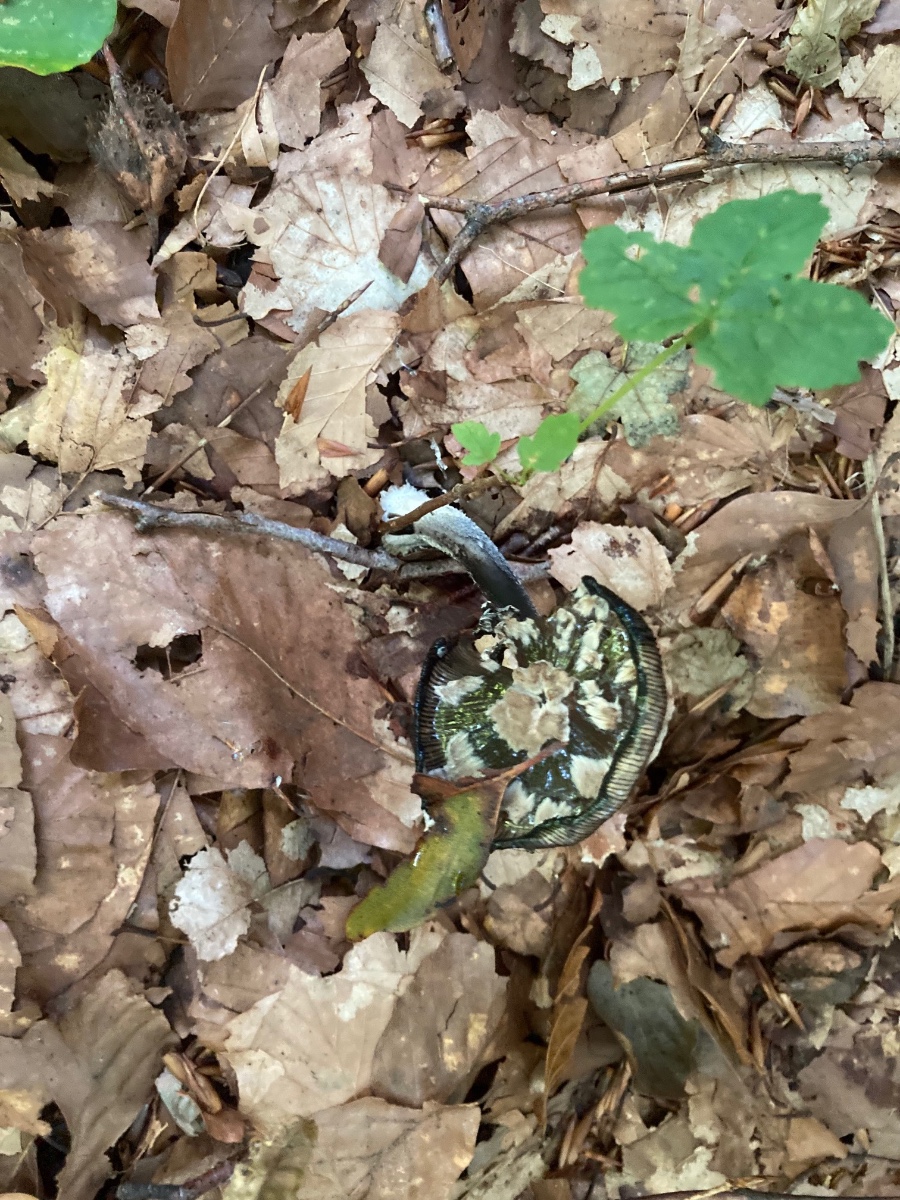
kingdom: Fungi
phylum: Basidiomycota
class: Agaricomycetes
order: Agaricales
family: Psathyrellaceae
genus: Coprinopsis
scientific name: Coprinopsis picacea
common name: skade-blækhat
